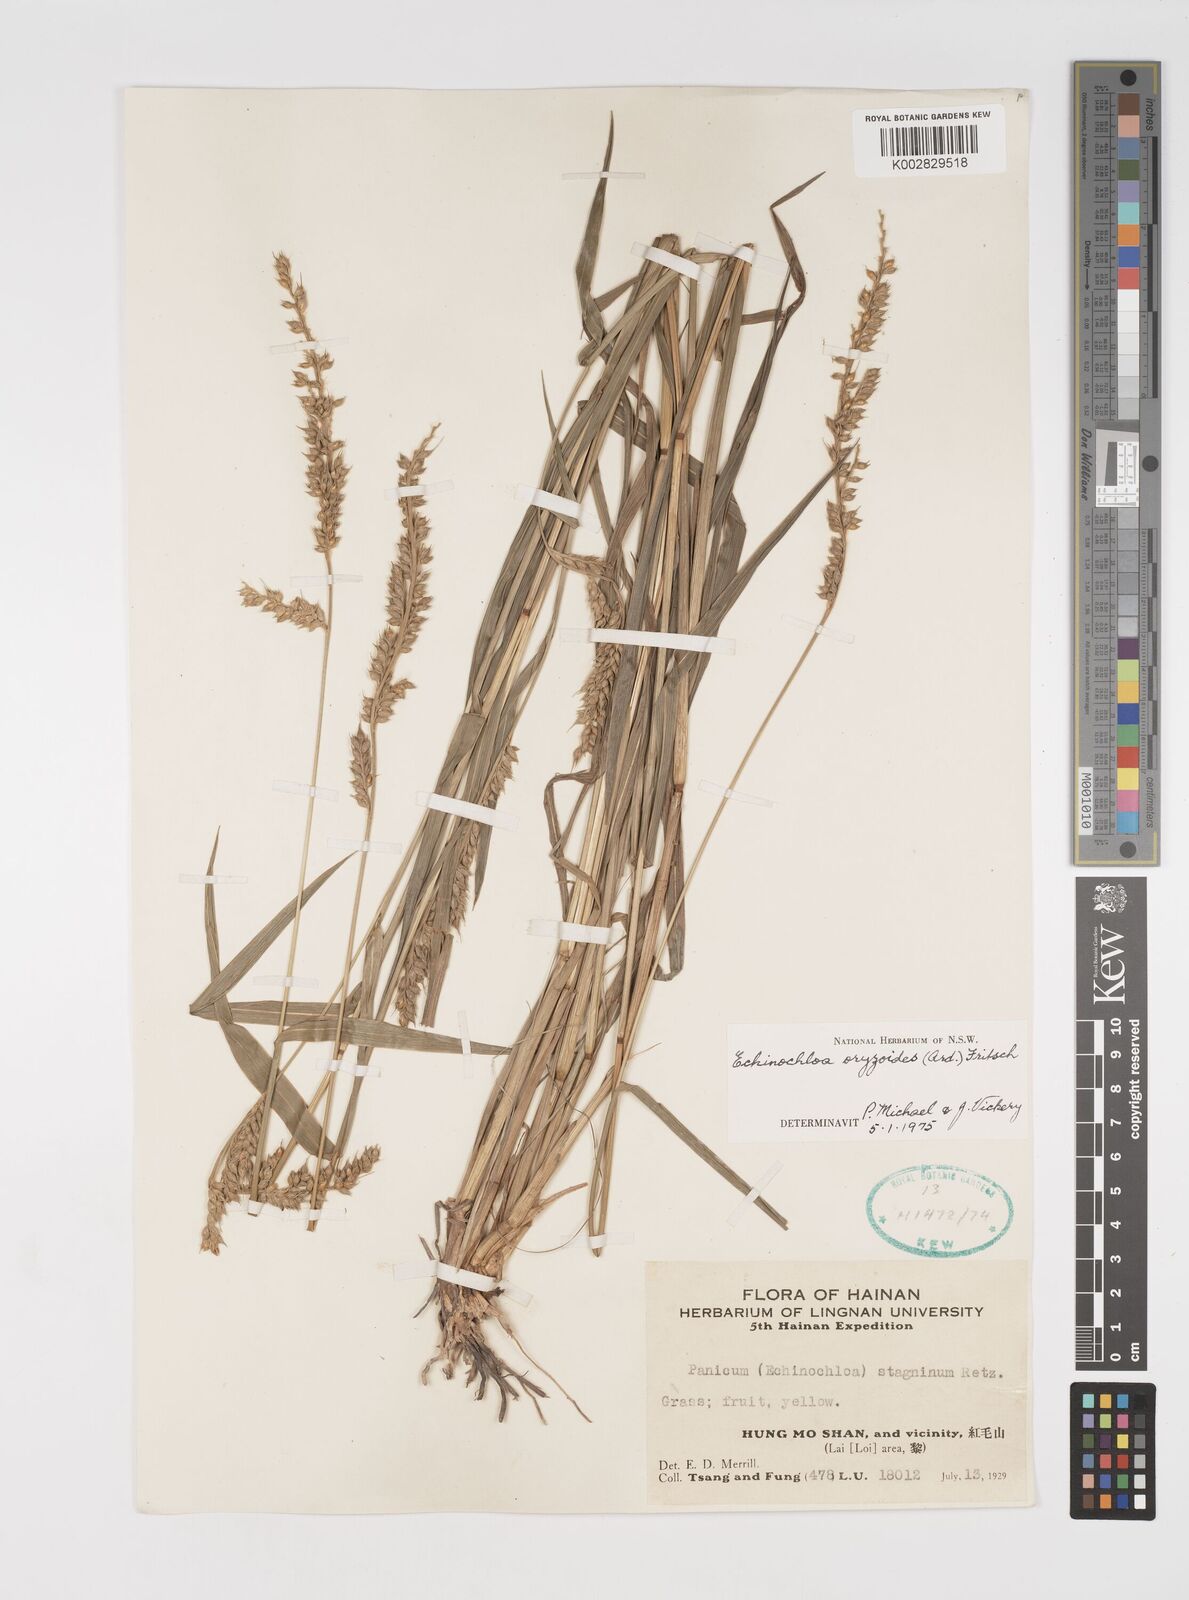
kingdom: Plantae
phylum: Tracheophyta
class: Liliopsida
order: Poales
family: Poaceae
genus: Echinochloa
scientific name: Echinochloa oryzoides
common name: Early water grass
